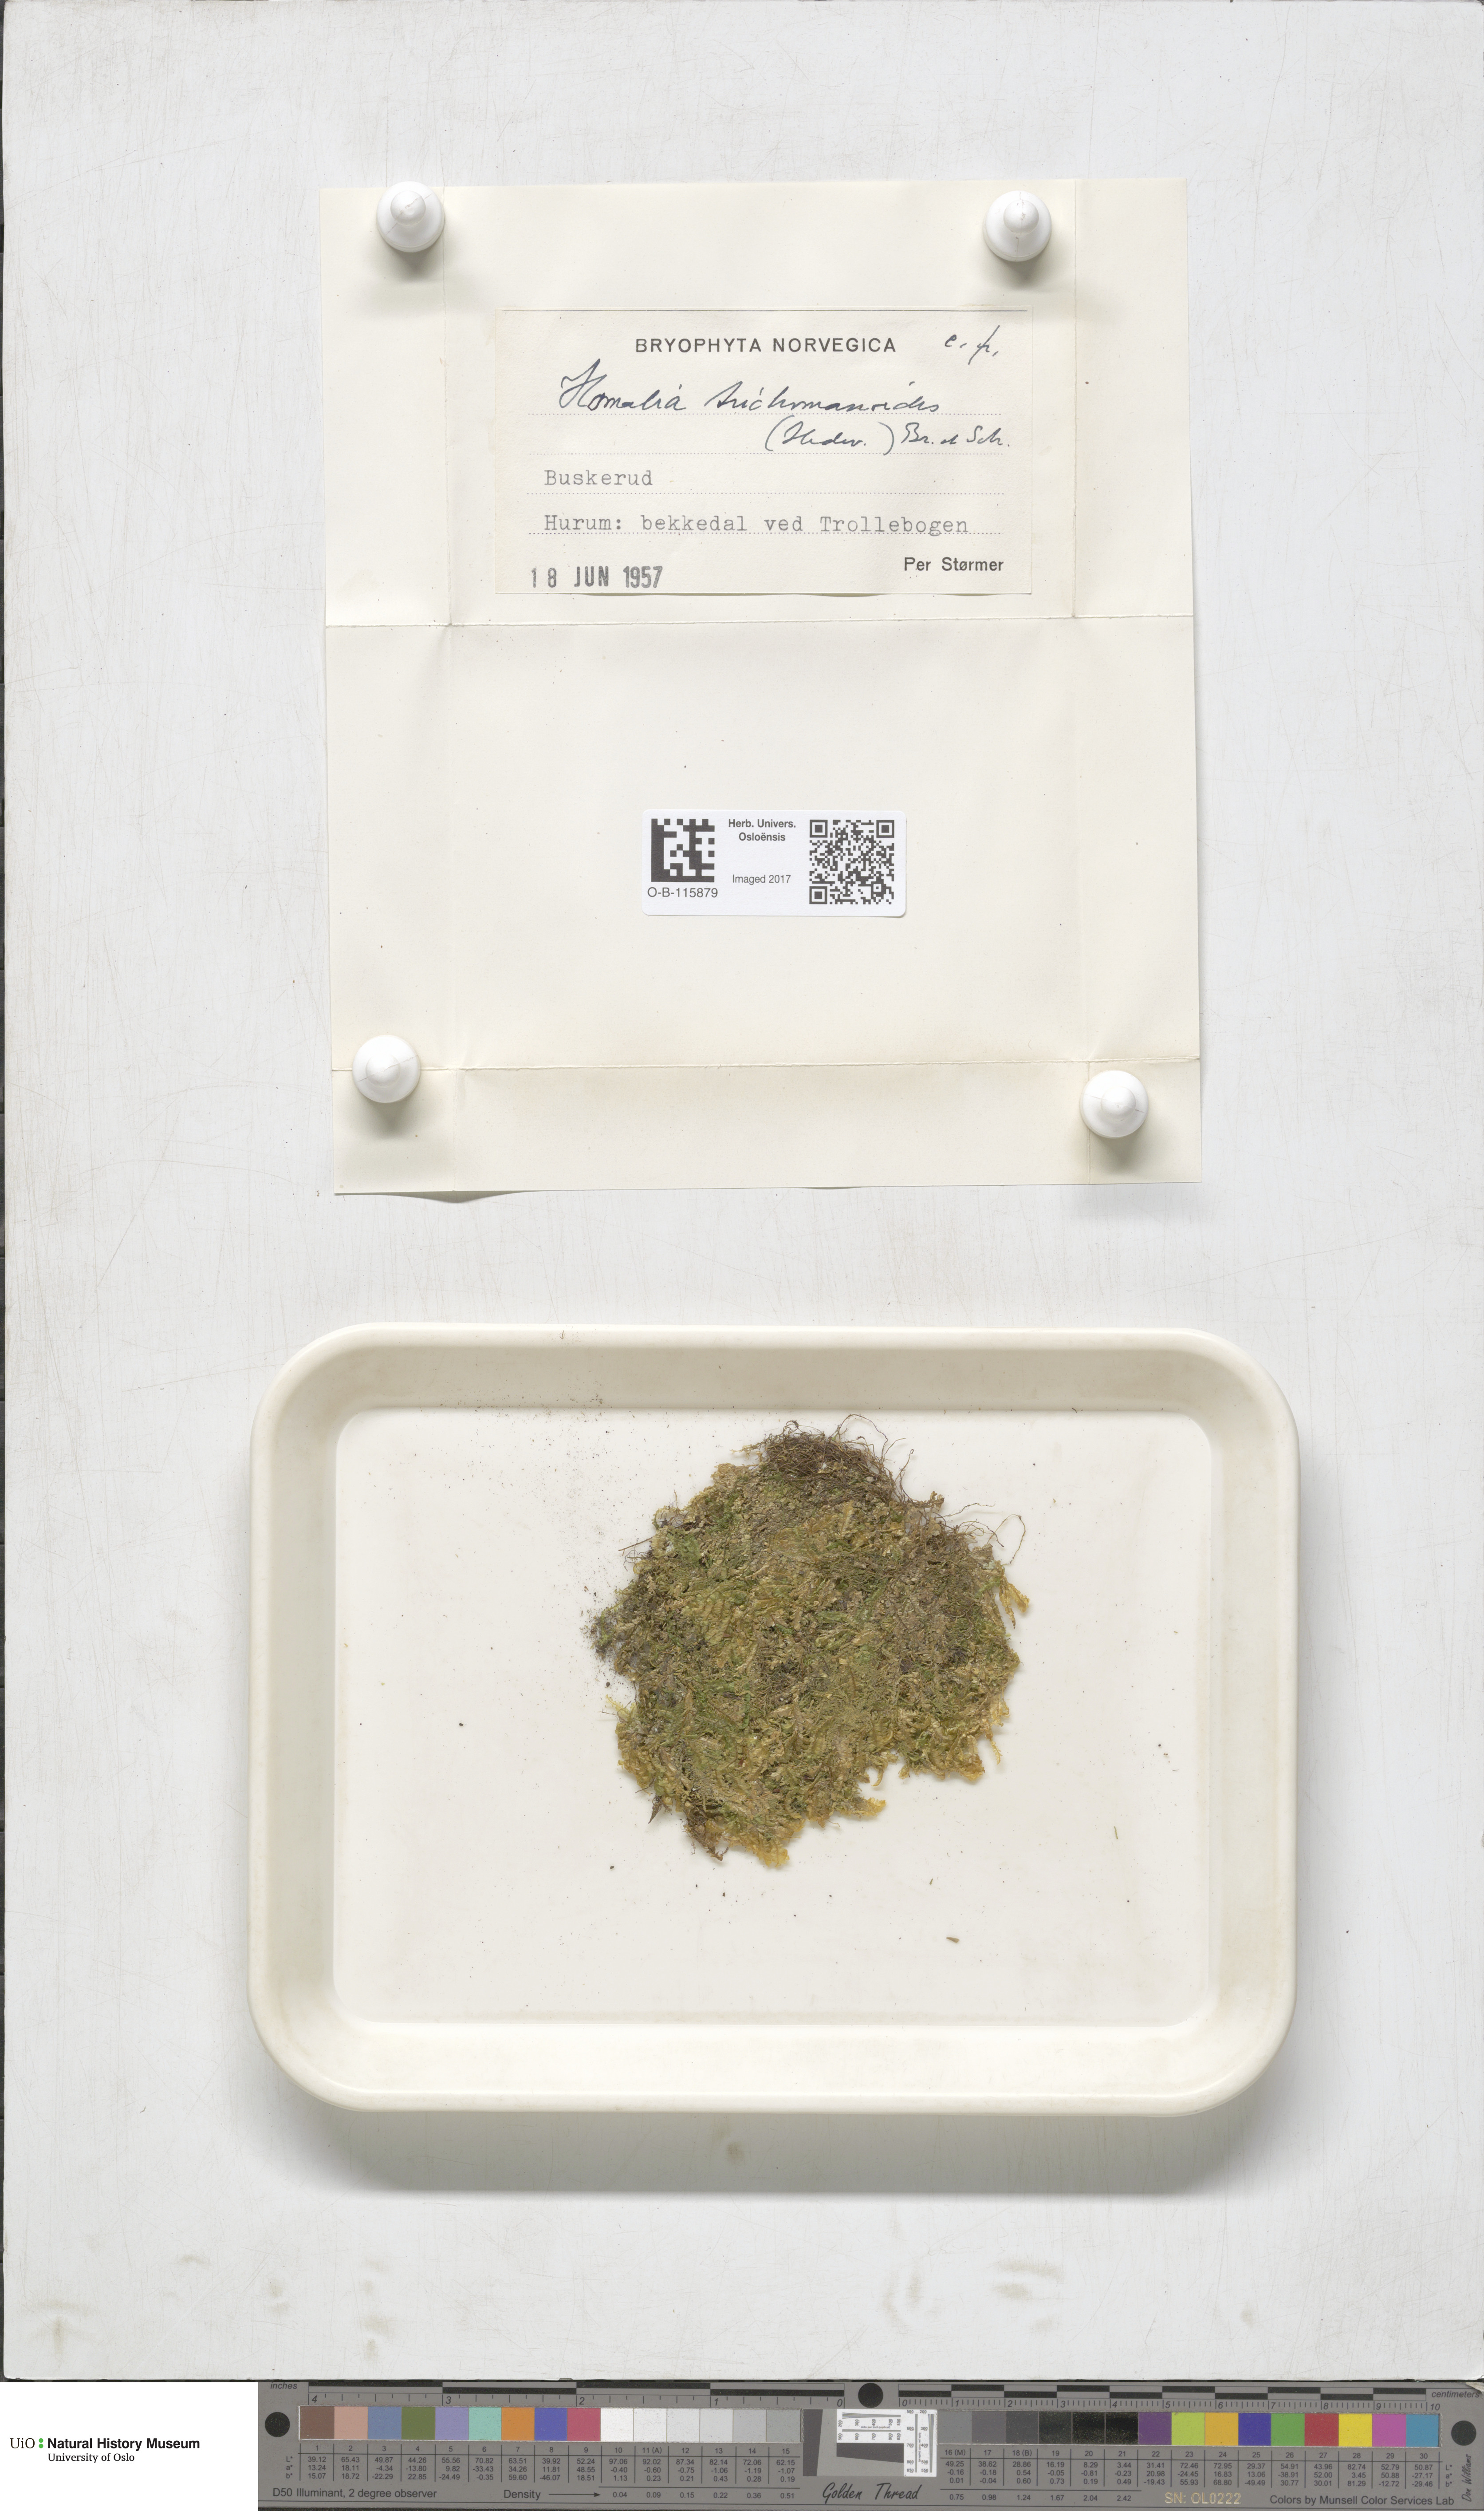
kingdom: Plantae
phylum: Bryophyta
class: Bryopsida
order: Hypnales
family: Neckeraceae
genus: Homalia
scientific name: Homalia trichomanoides
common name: Lime homalia moss
